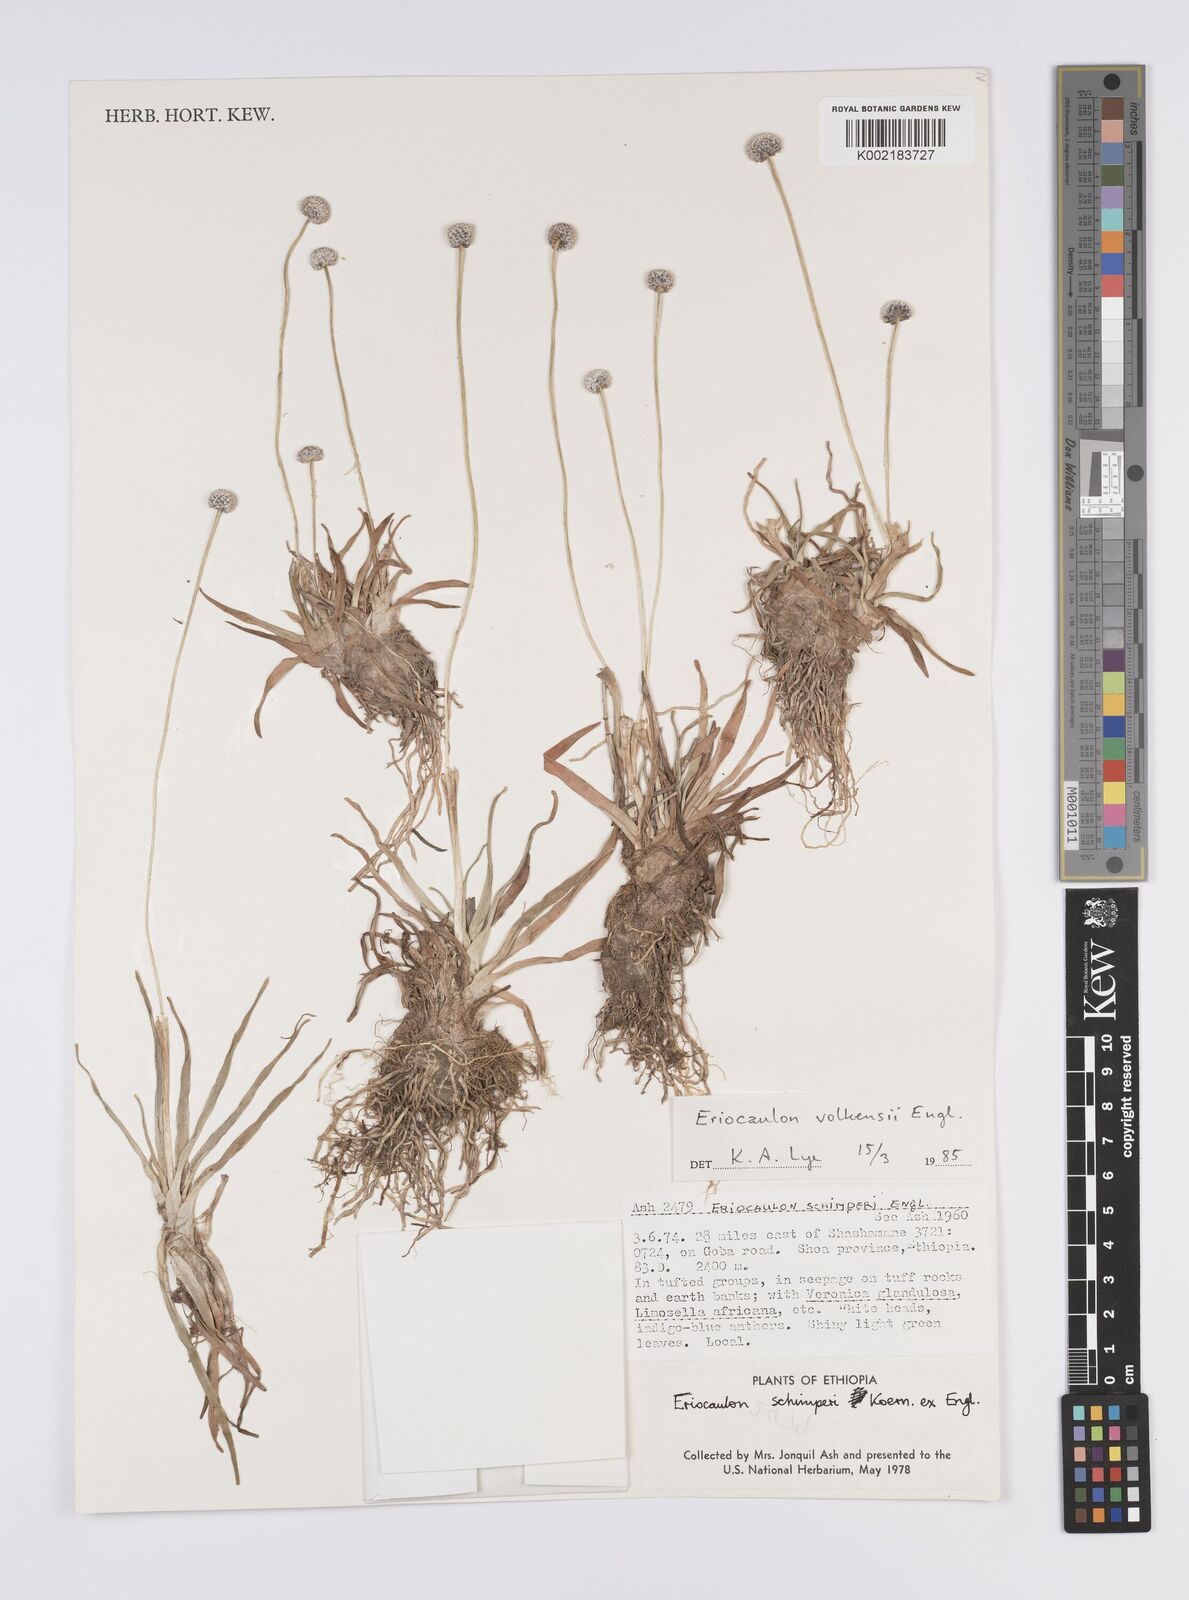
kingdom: Plantae
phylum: Tracheophyta
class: Liliopsida
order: Poales
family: Eriocaulaceae
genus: Eriocaulon
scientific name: Eriocaulon schimperi
